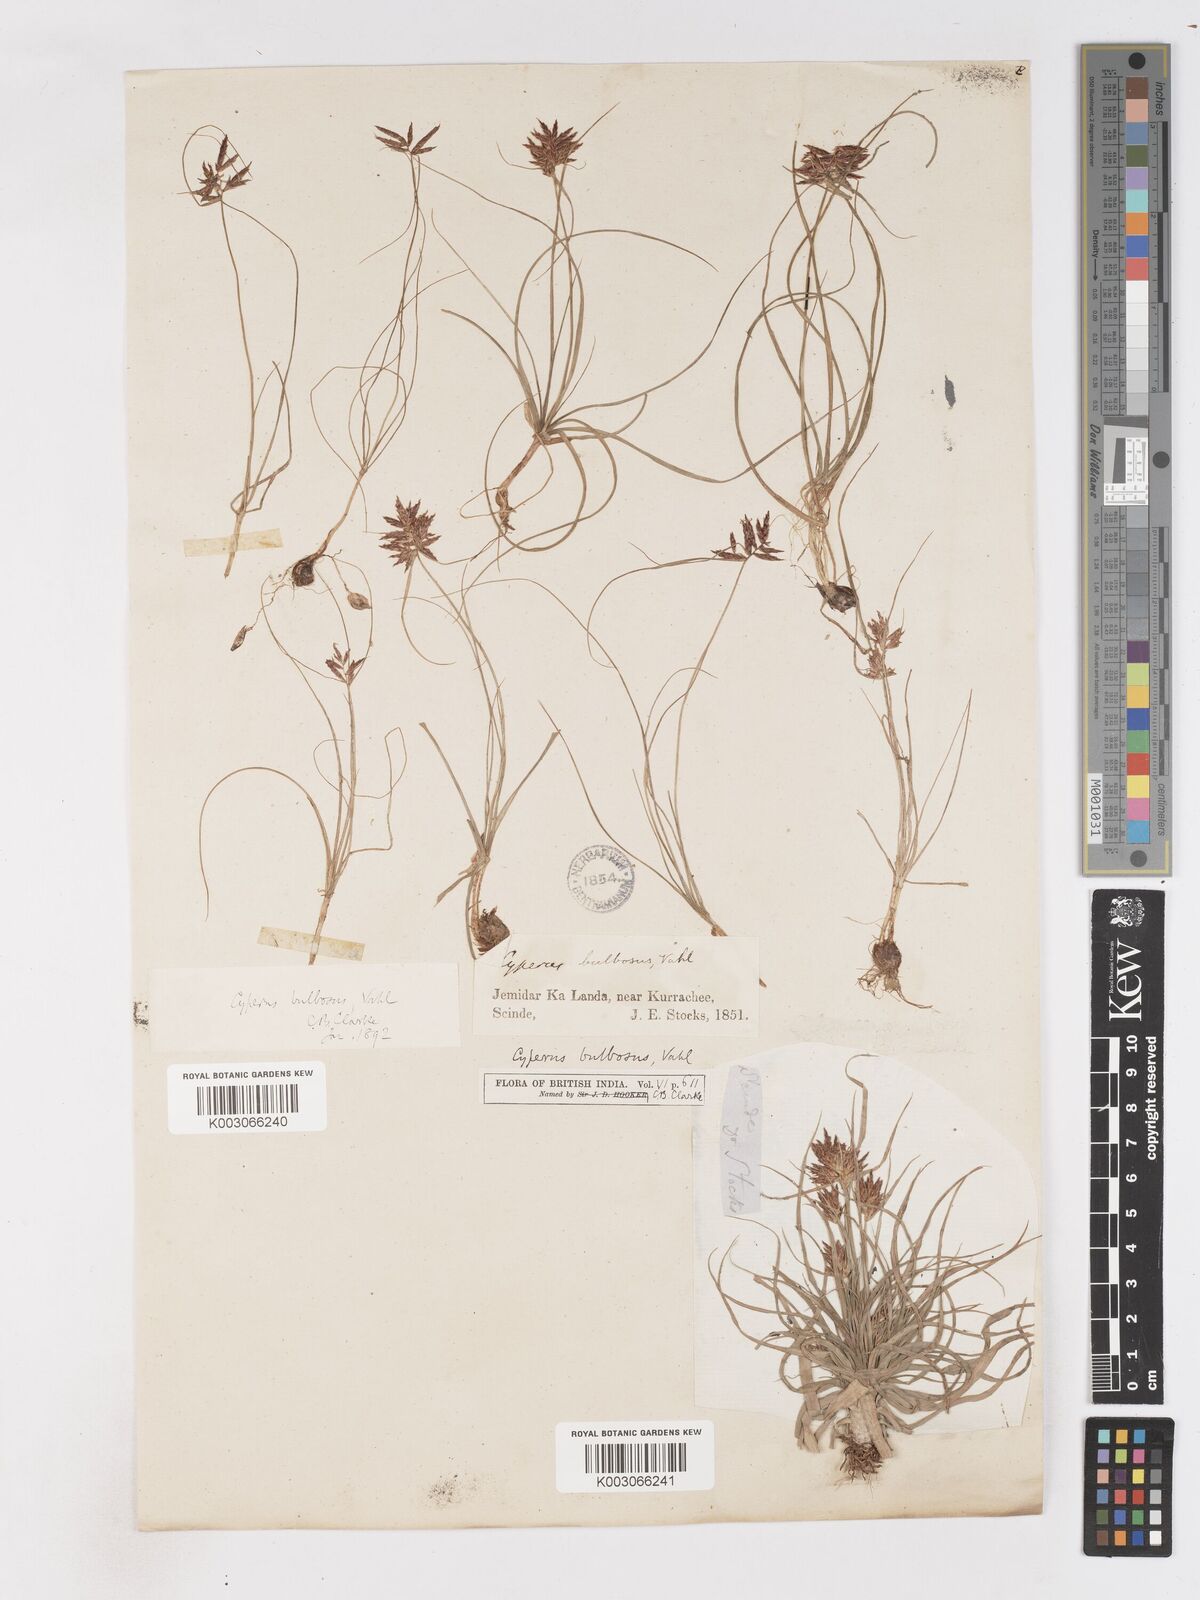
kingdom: Plantae
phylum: Tracheophyta
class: Liliopsida
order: Poales
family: Cyperaceae
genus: Cyperus
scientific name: Cyperus bulbosus
